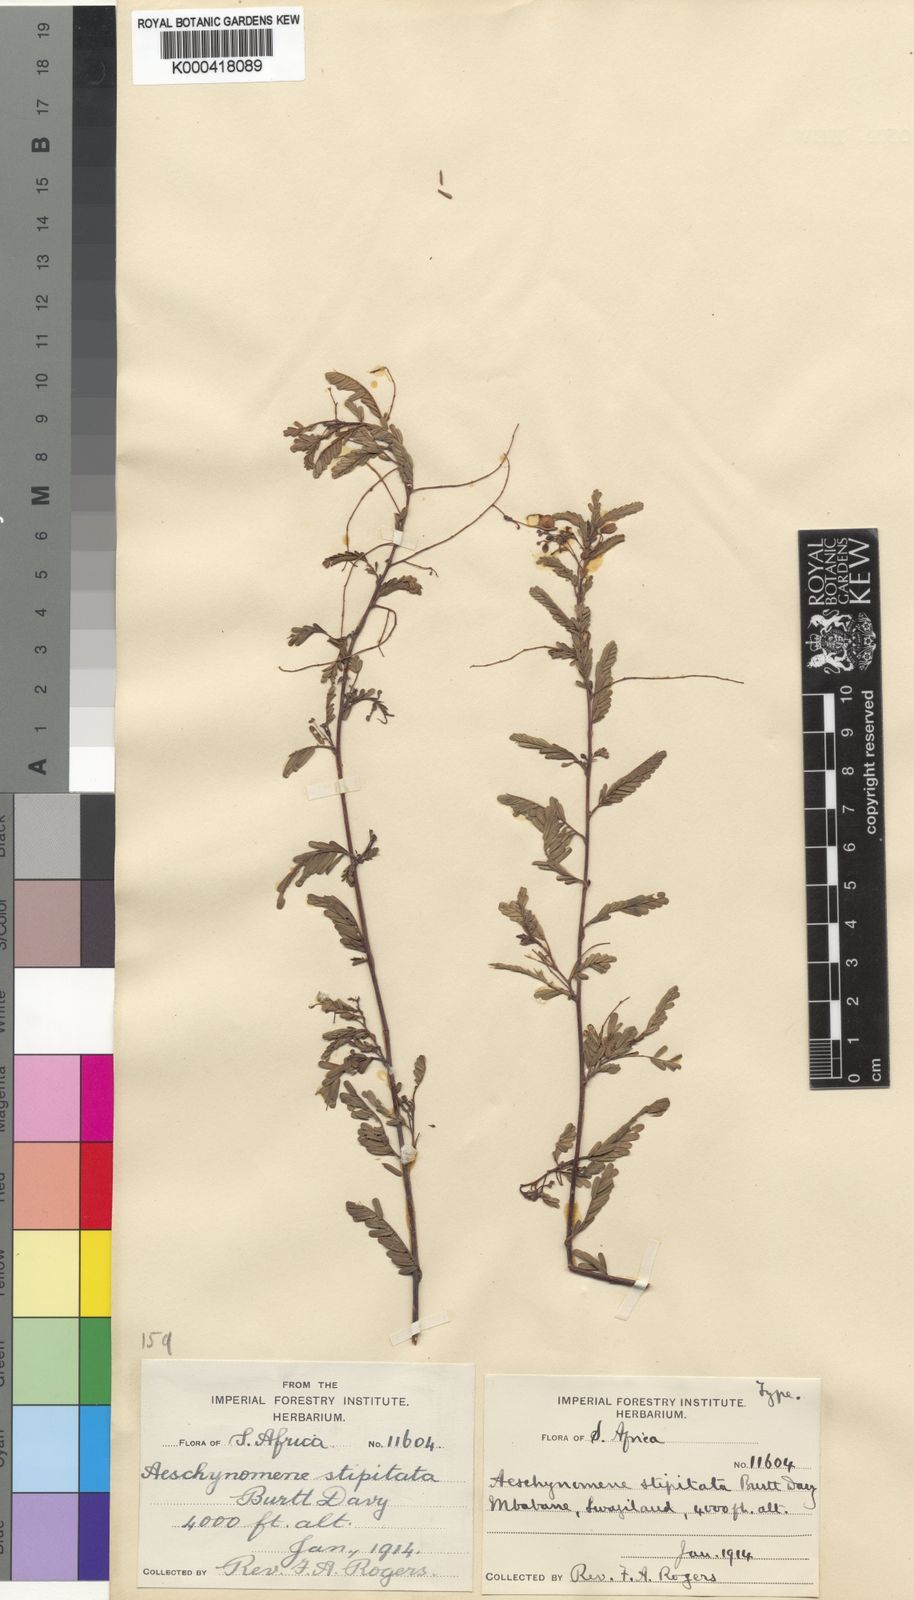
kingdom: Plantae
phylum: Tracheophyta
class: Magnoliopsida
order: Fabales
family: Fabaceae
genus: Aeschynomene
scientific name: Aeschynomene stipitata
